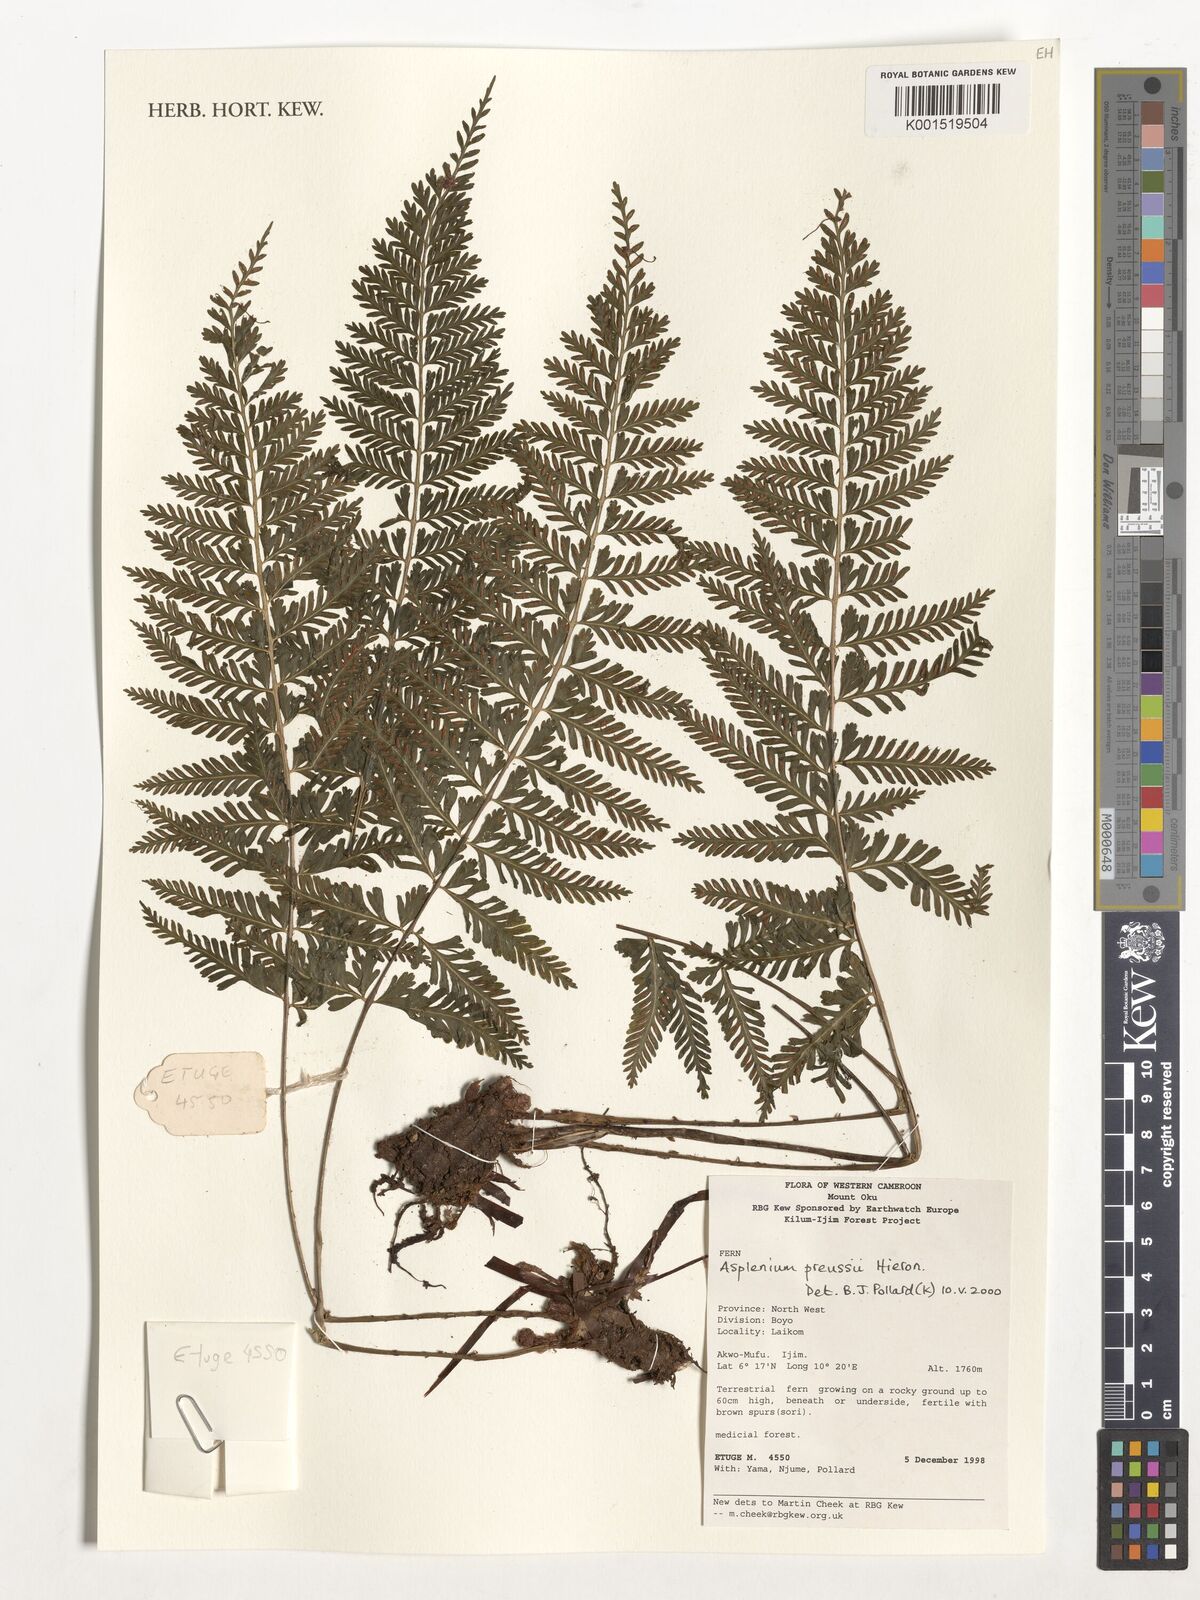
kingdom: Plantae
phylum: Tracheophyta
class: Polypodiopsida
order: Polypodiales
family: Aspleniaceae
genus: Asplenium
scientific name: Asplenium preussii
